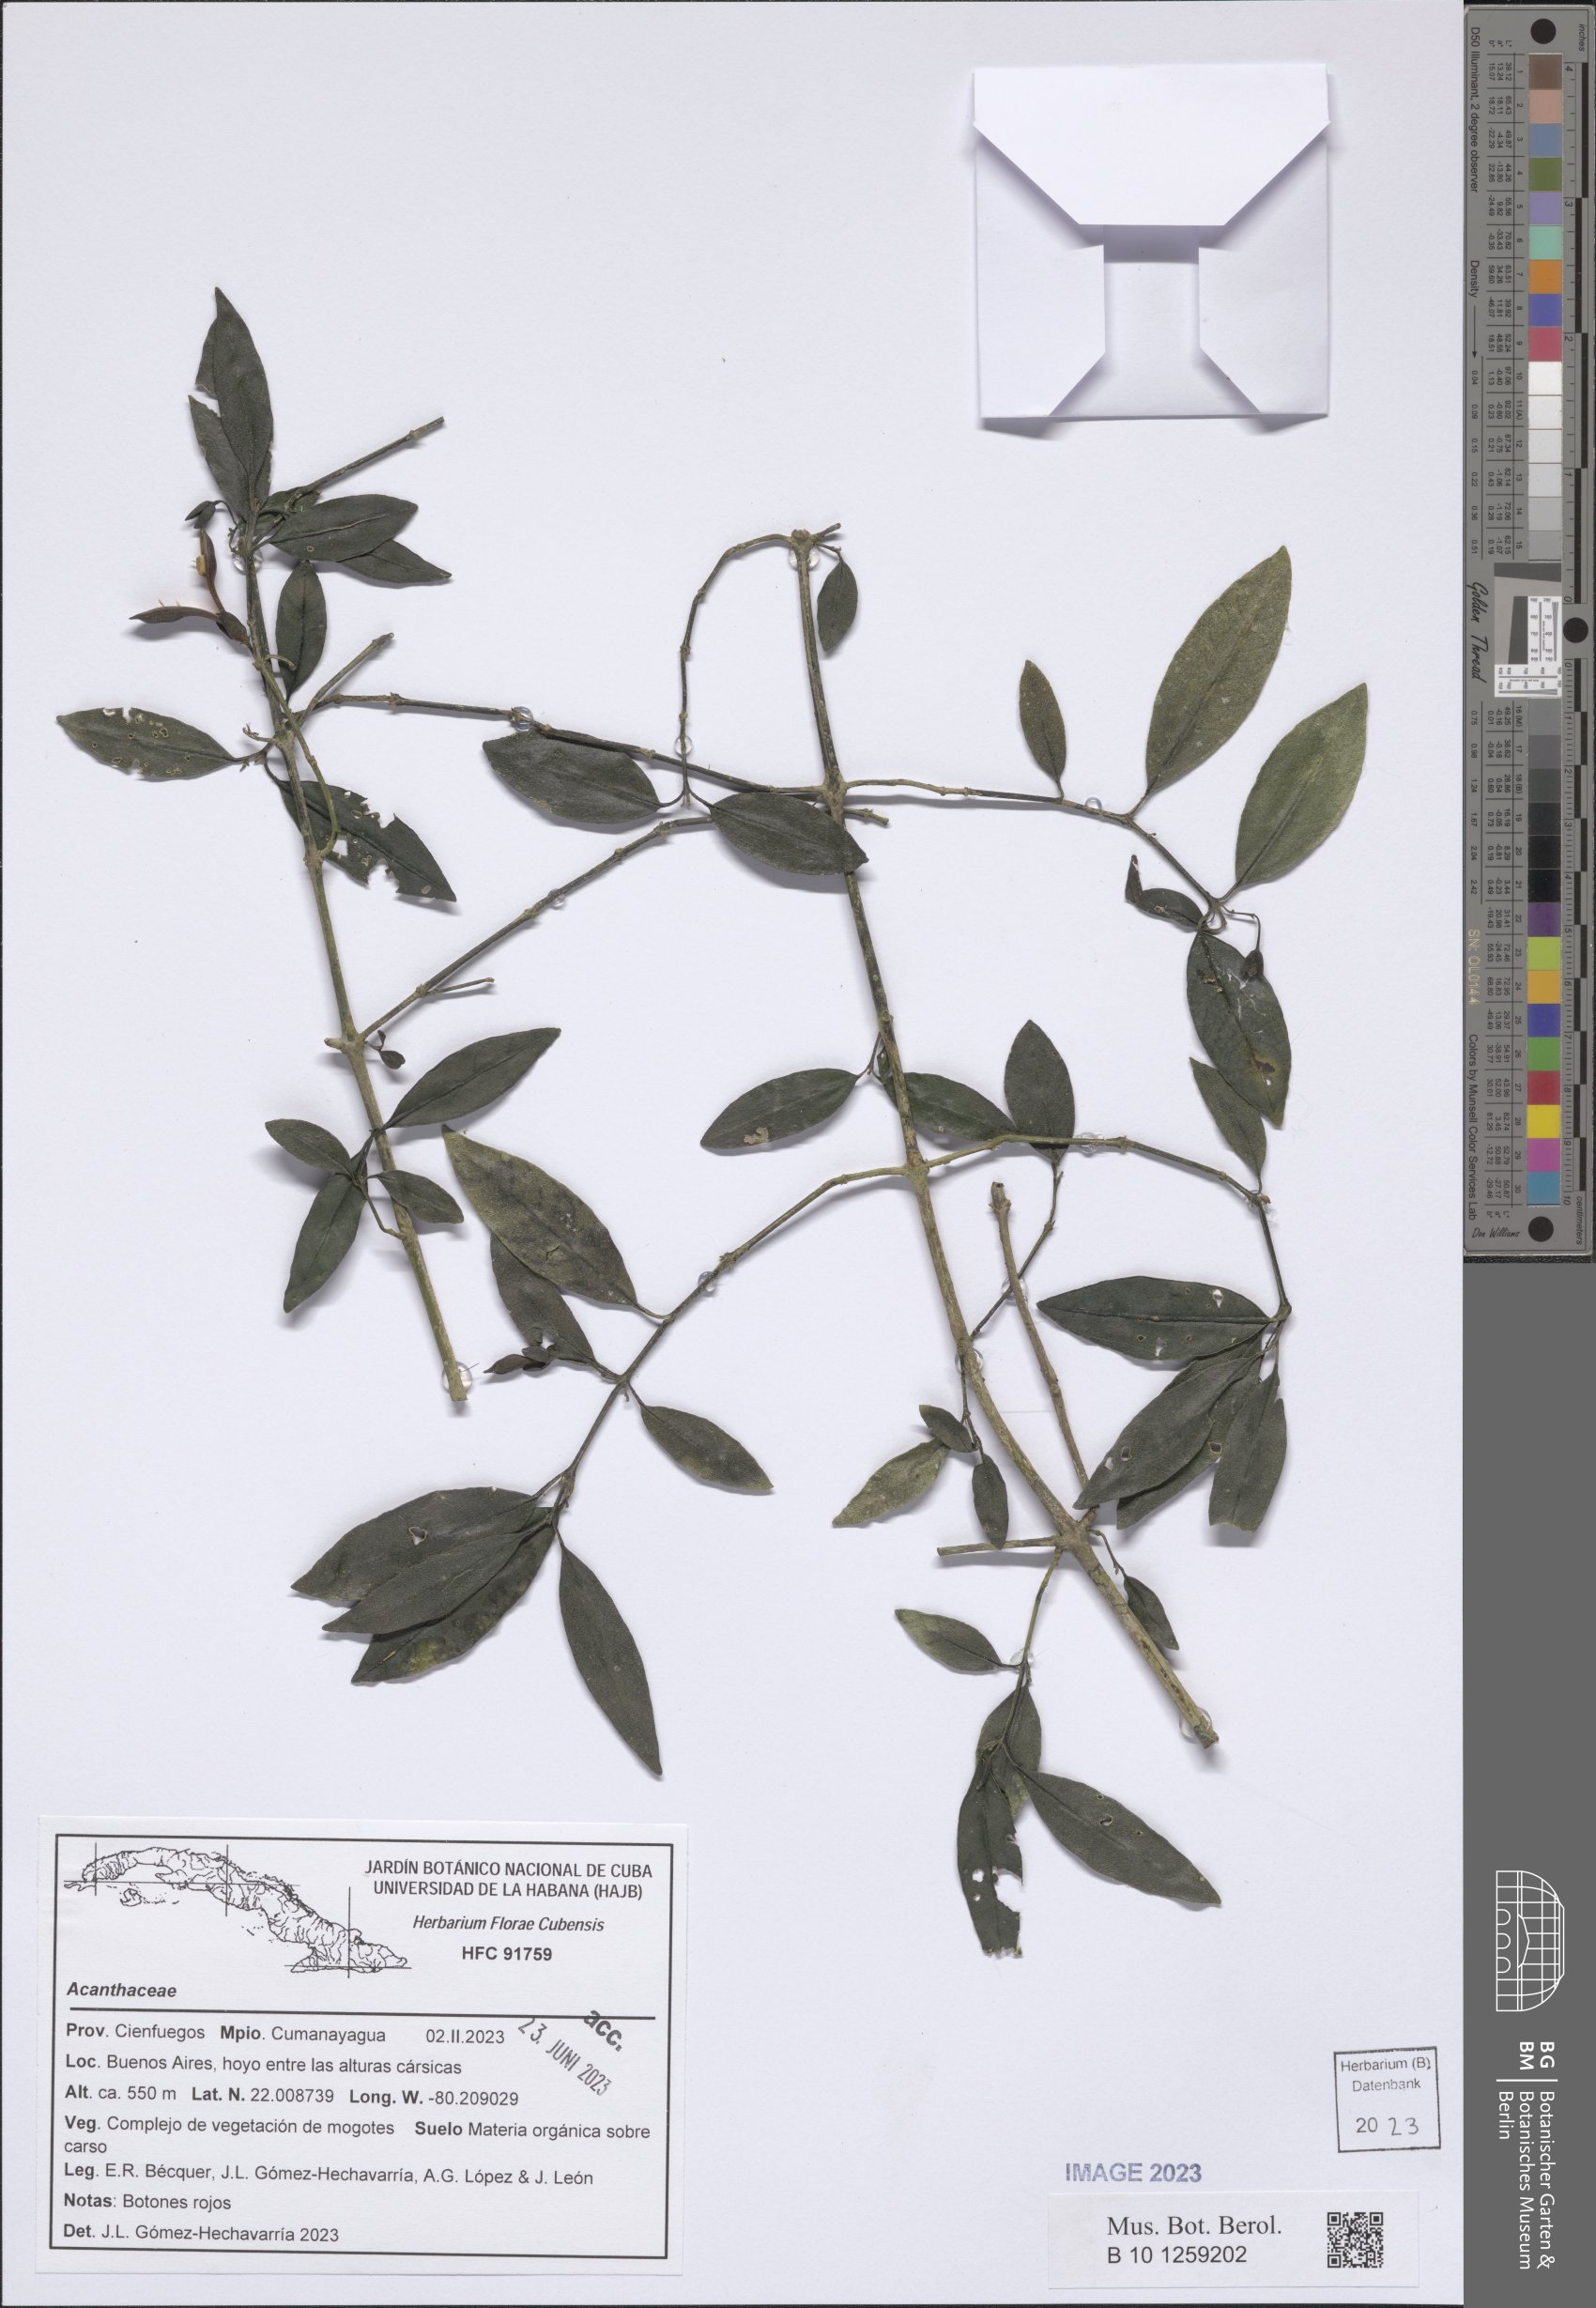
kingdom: Plantae
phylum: Tracheophyta
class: Magnoliopsida
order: Lamiales
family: Acanthaceae
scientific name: Acanthaceae
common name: Acanthaceae
